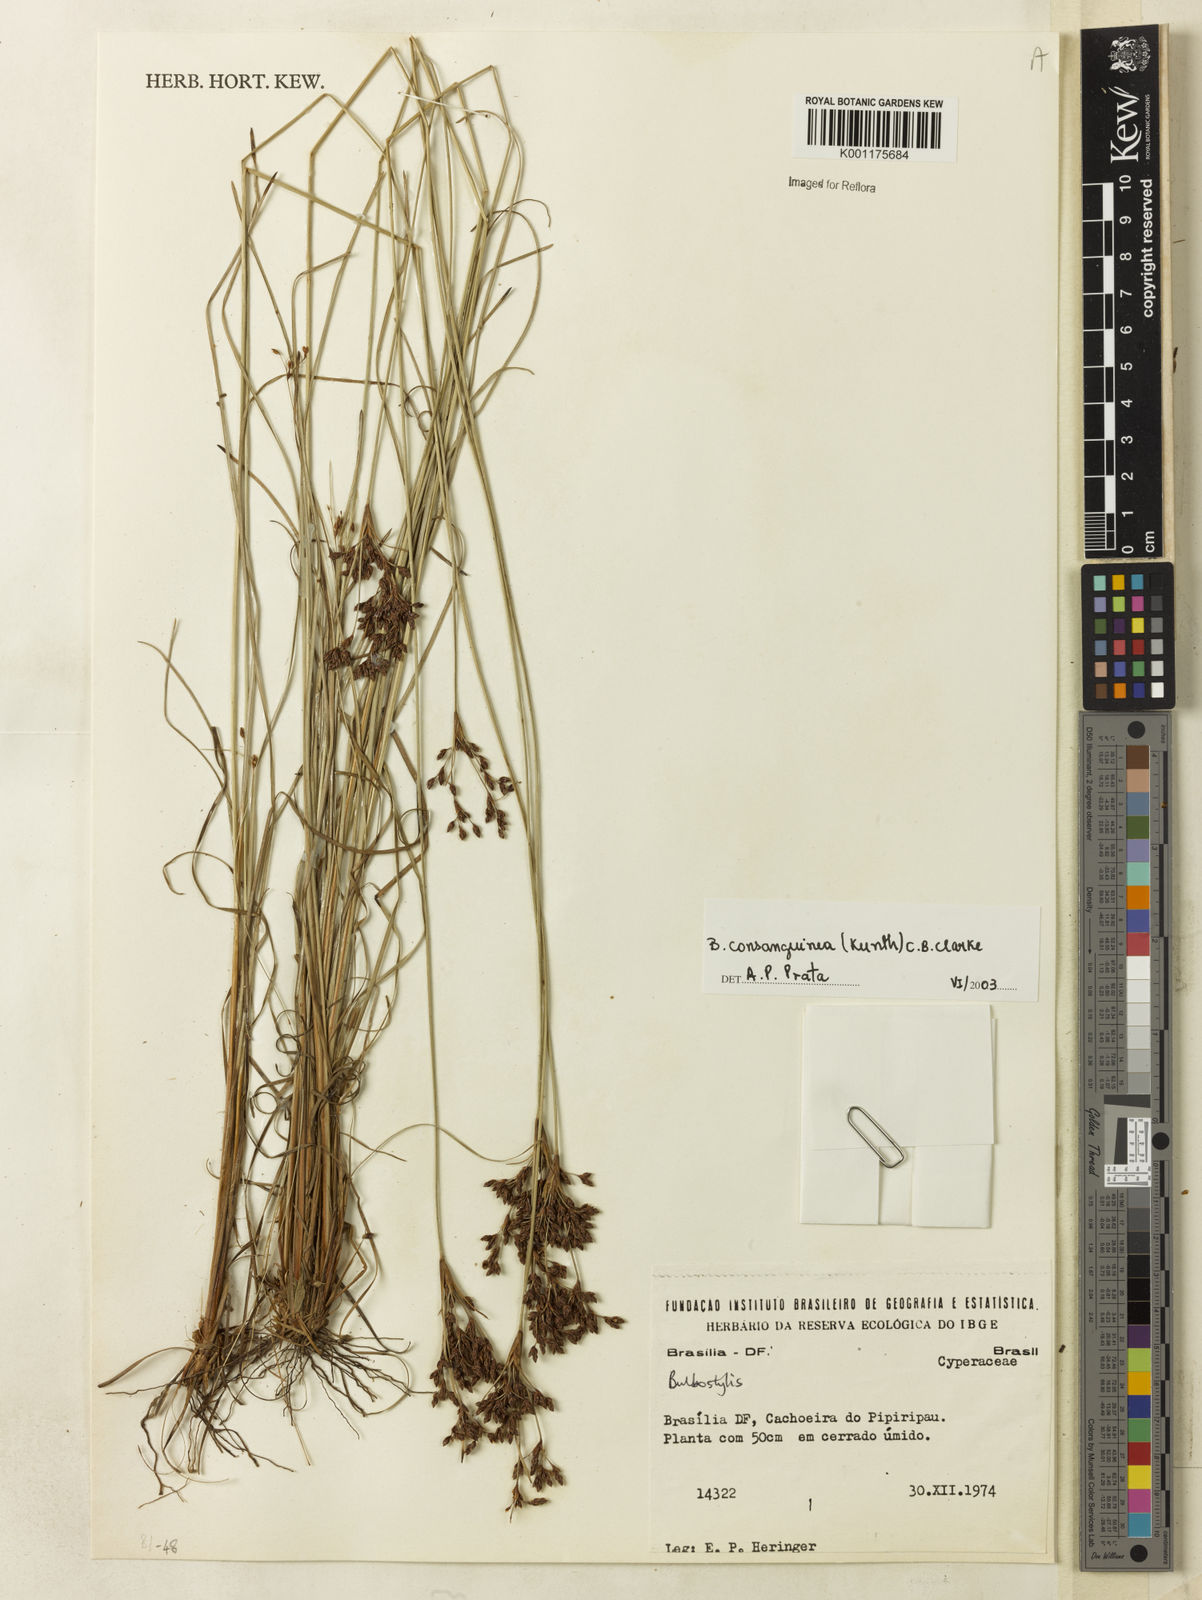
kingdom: Plantae
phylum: Tracheophyta
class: Liliopsida
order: Poales
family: Cyperaceae
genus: Bulbostylis
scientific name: Bulbostylis consanguinea
